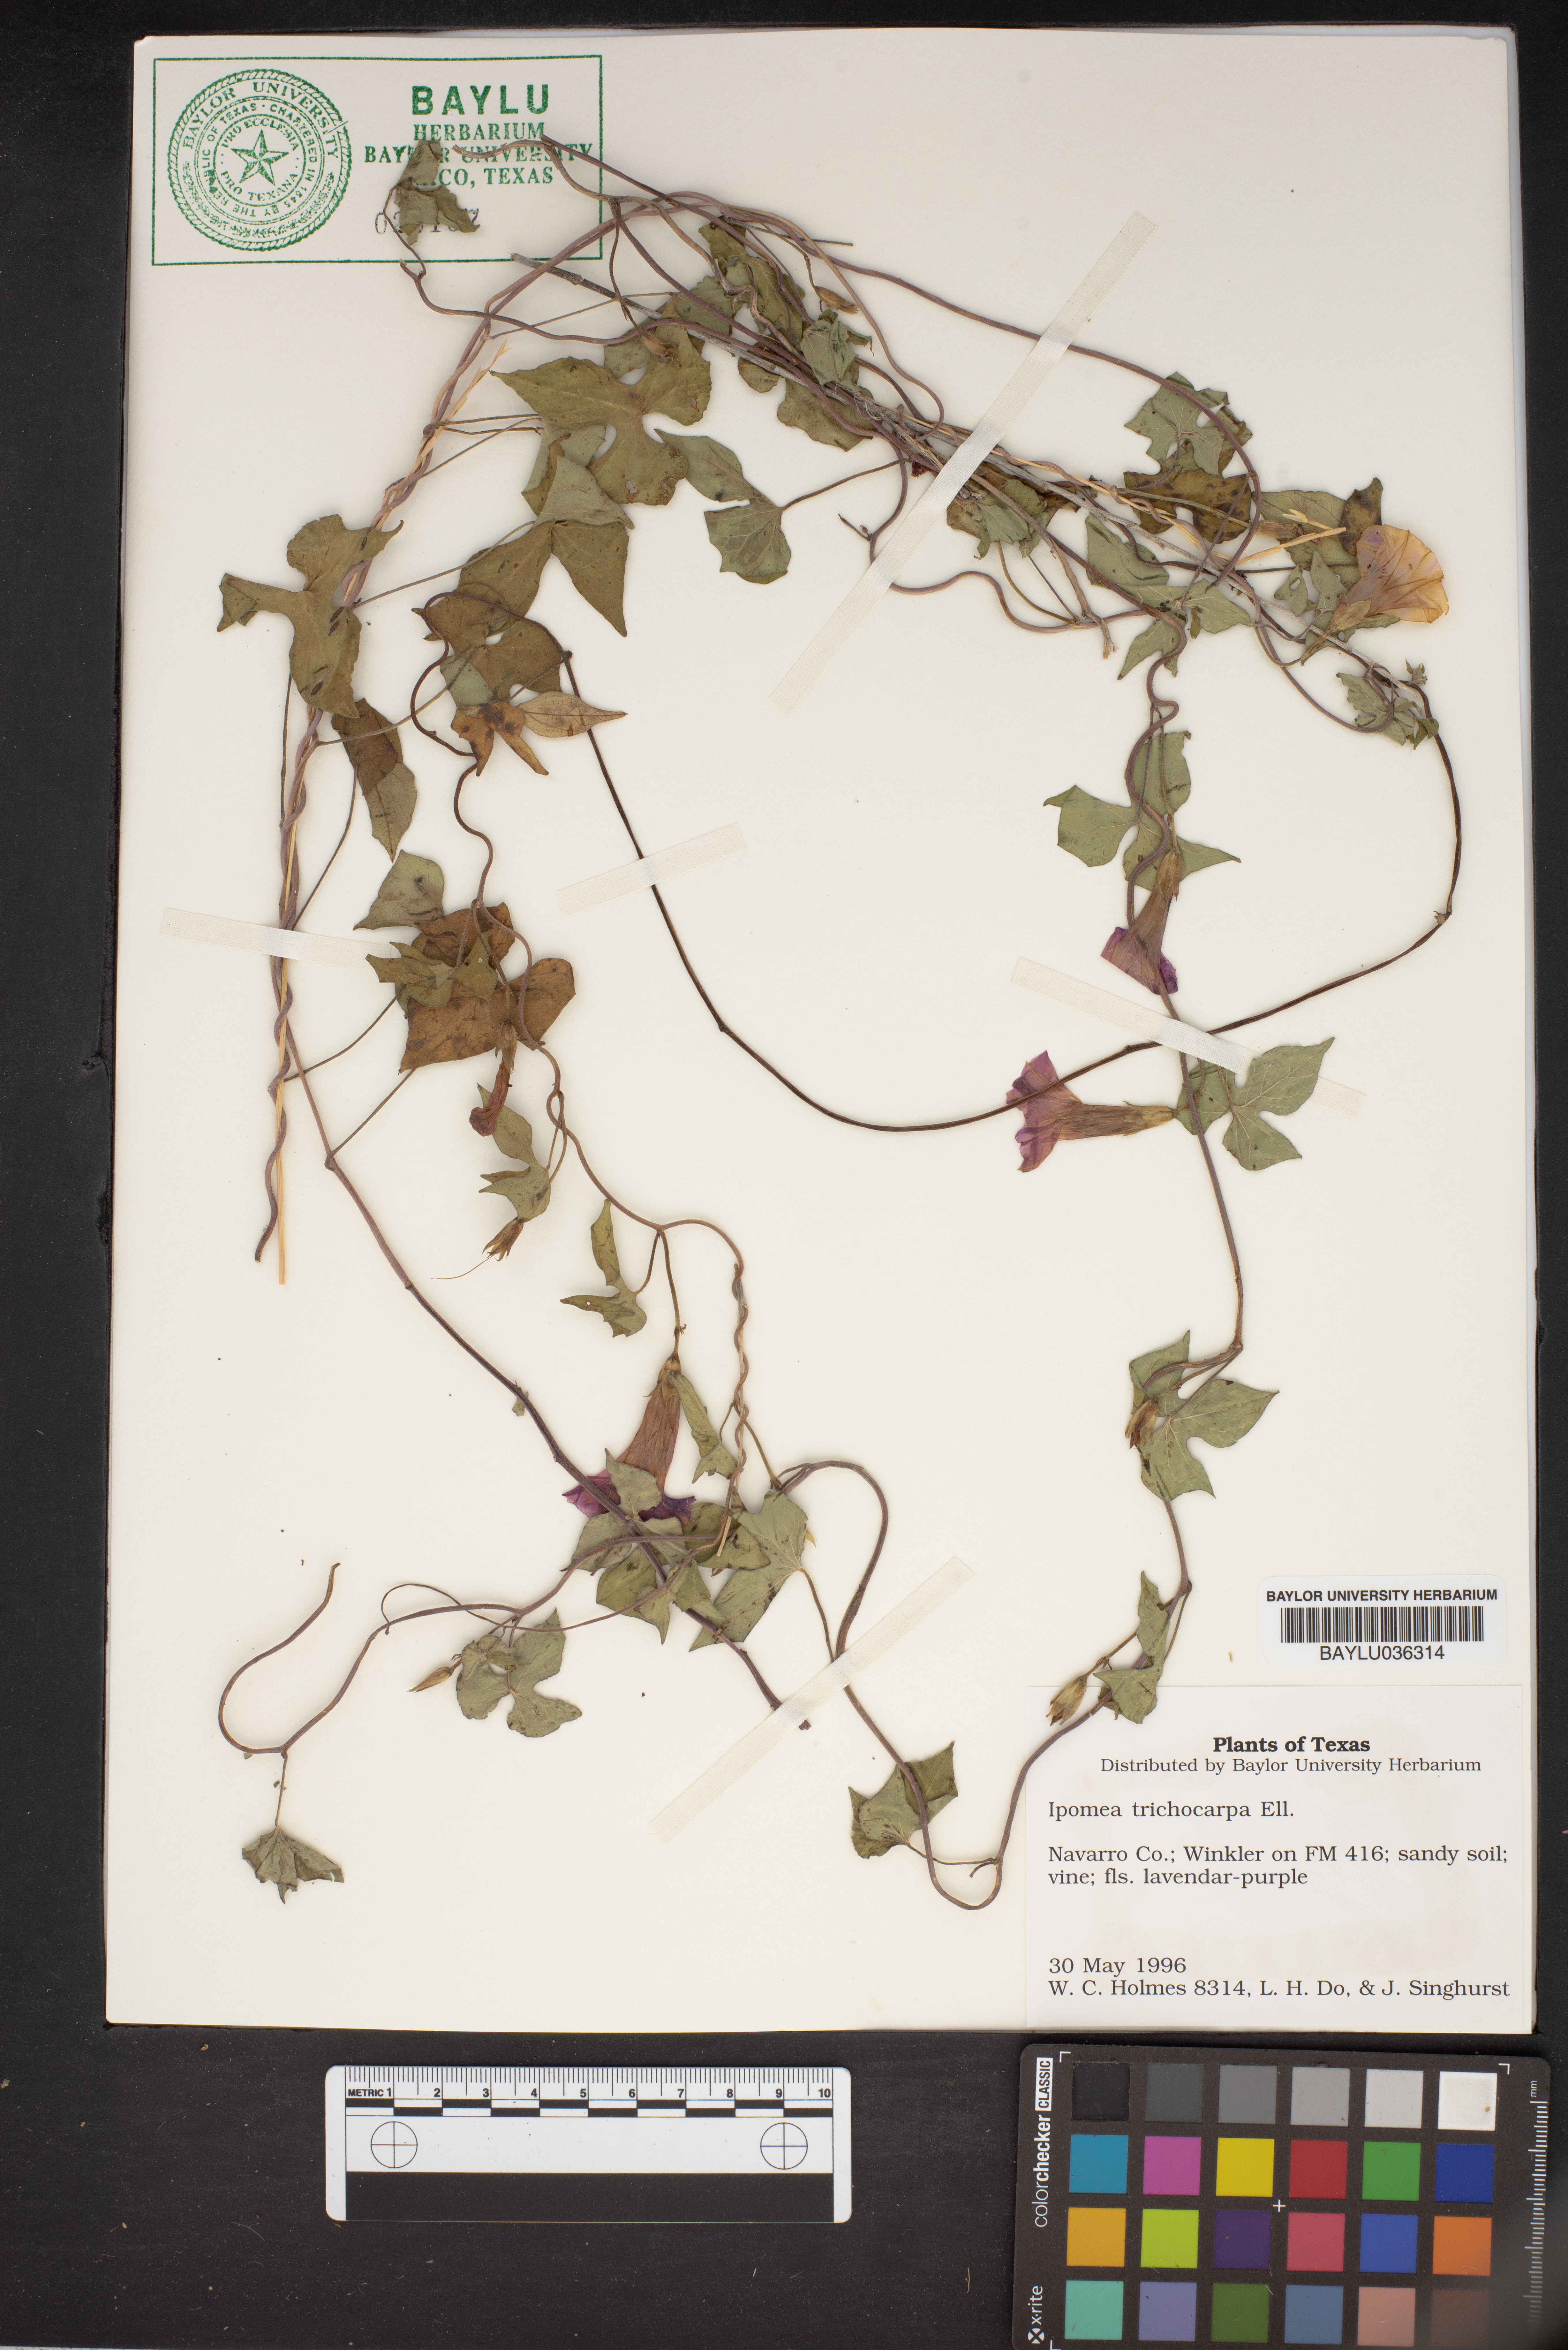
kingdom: Plantae
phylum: Tracheophyta
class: Magnoliopsida
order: Solanales
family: Convolvulaceae
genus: Ipomoea
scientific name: Ipomoea cordatotriloba
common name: Cotton morning glory
